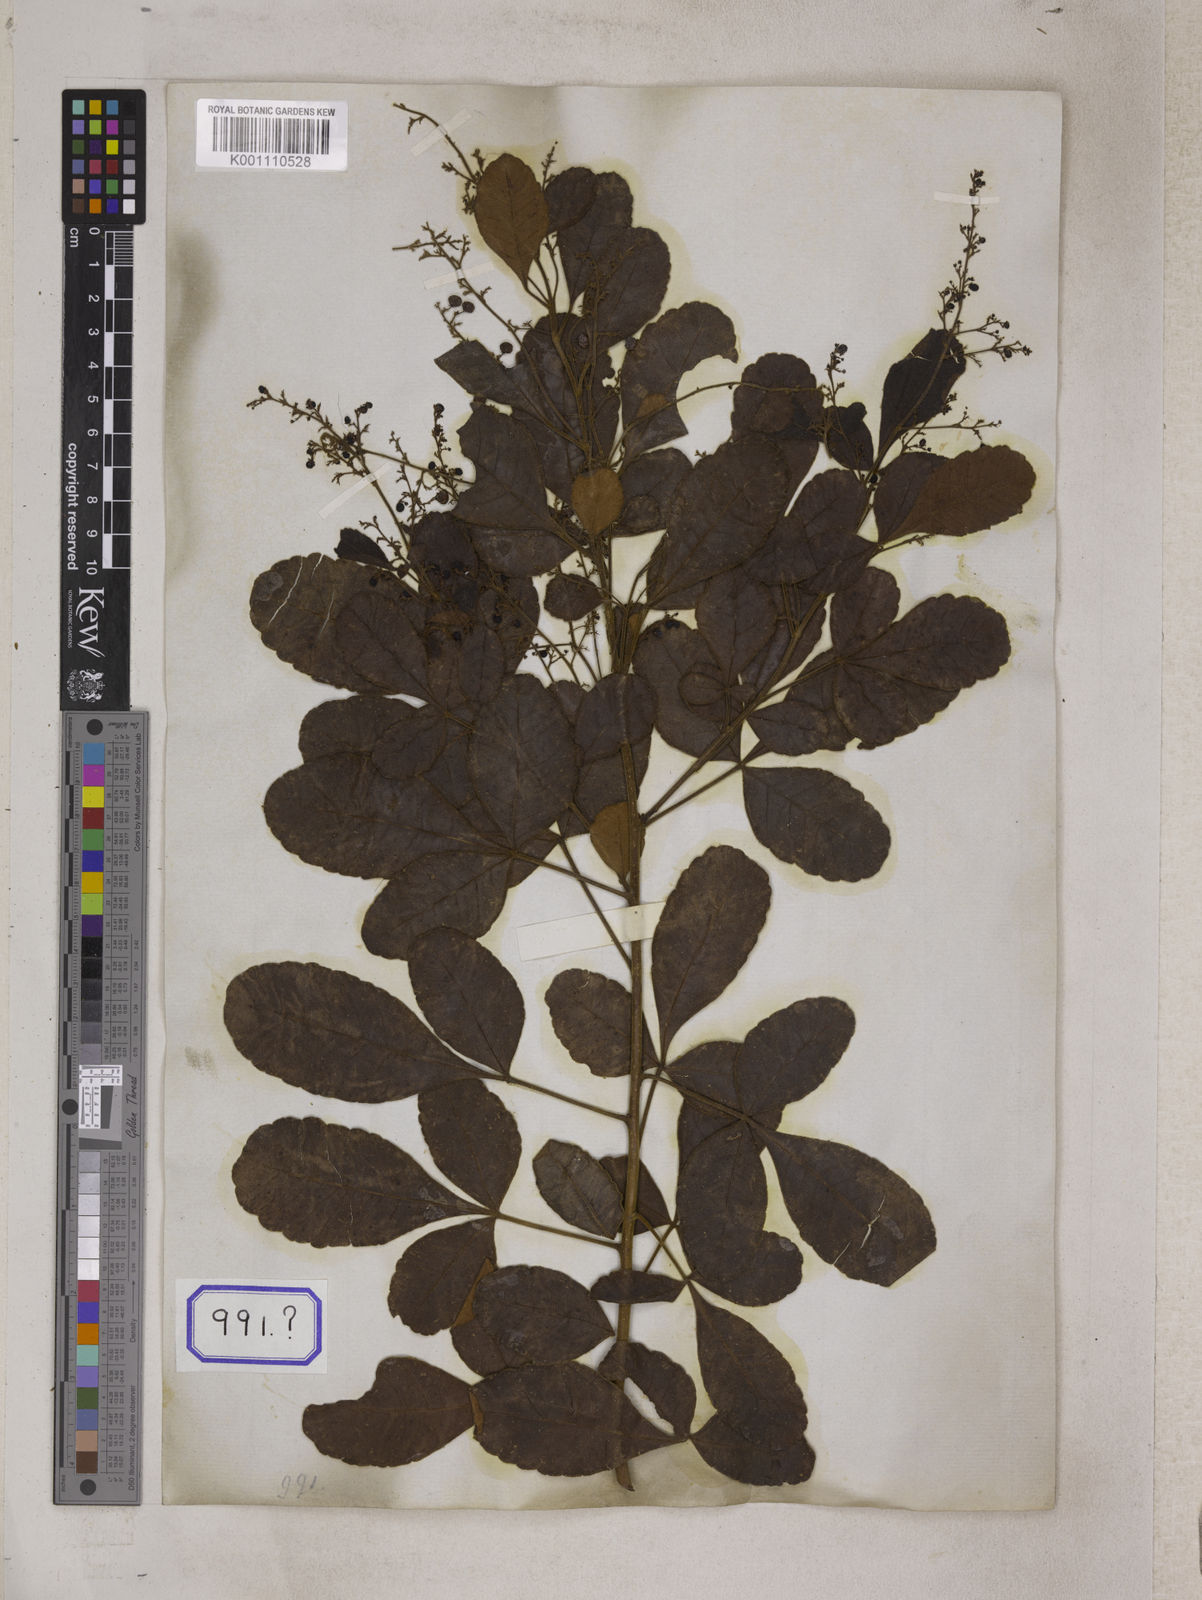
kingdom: Plantae
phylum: Tracheophyta
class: Magnoliopsida
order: Sapindales
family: Anacardiaceae
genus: Searsia
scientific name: Searsia parviflora
